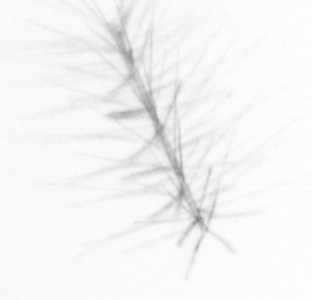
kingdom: Chromista
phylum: Ochrophyta
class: Bacillariophyceae
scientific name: Bacillariophyceae
